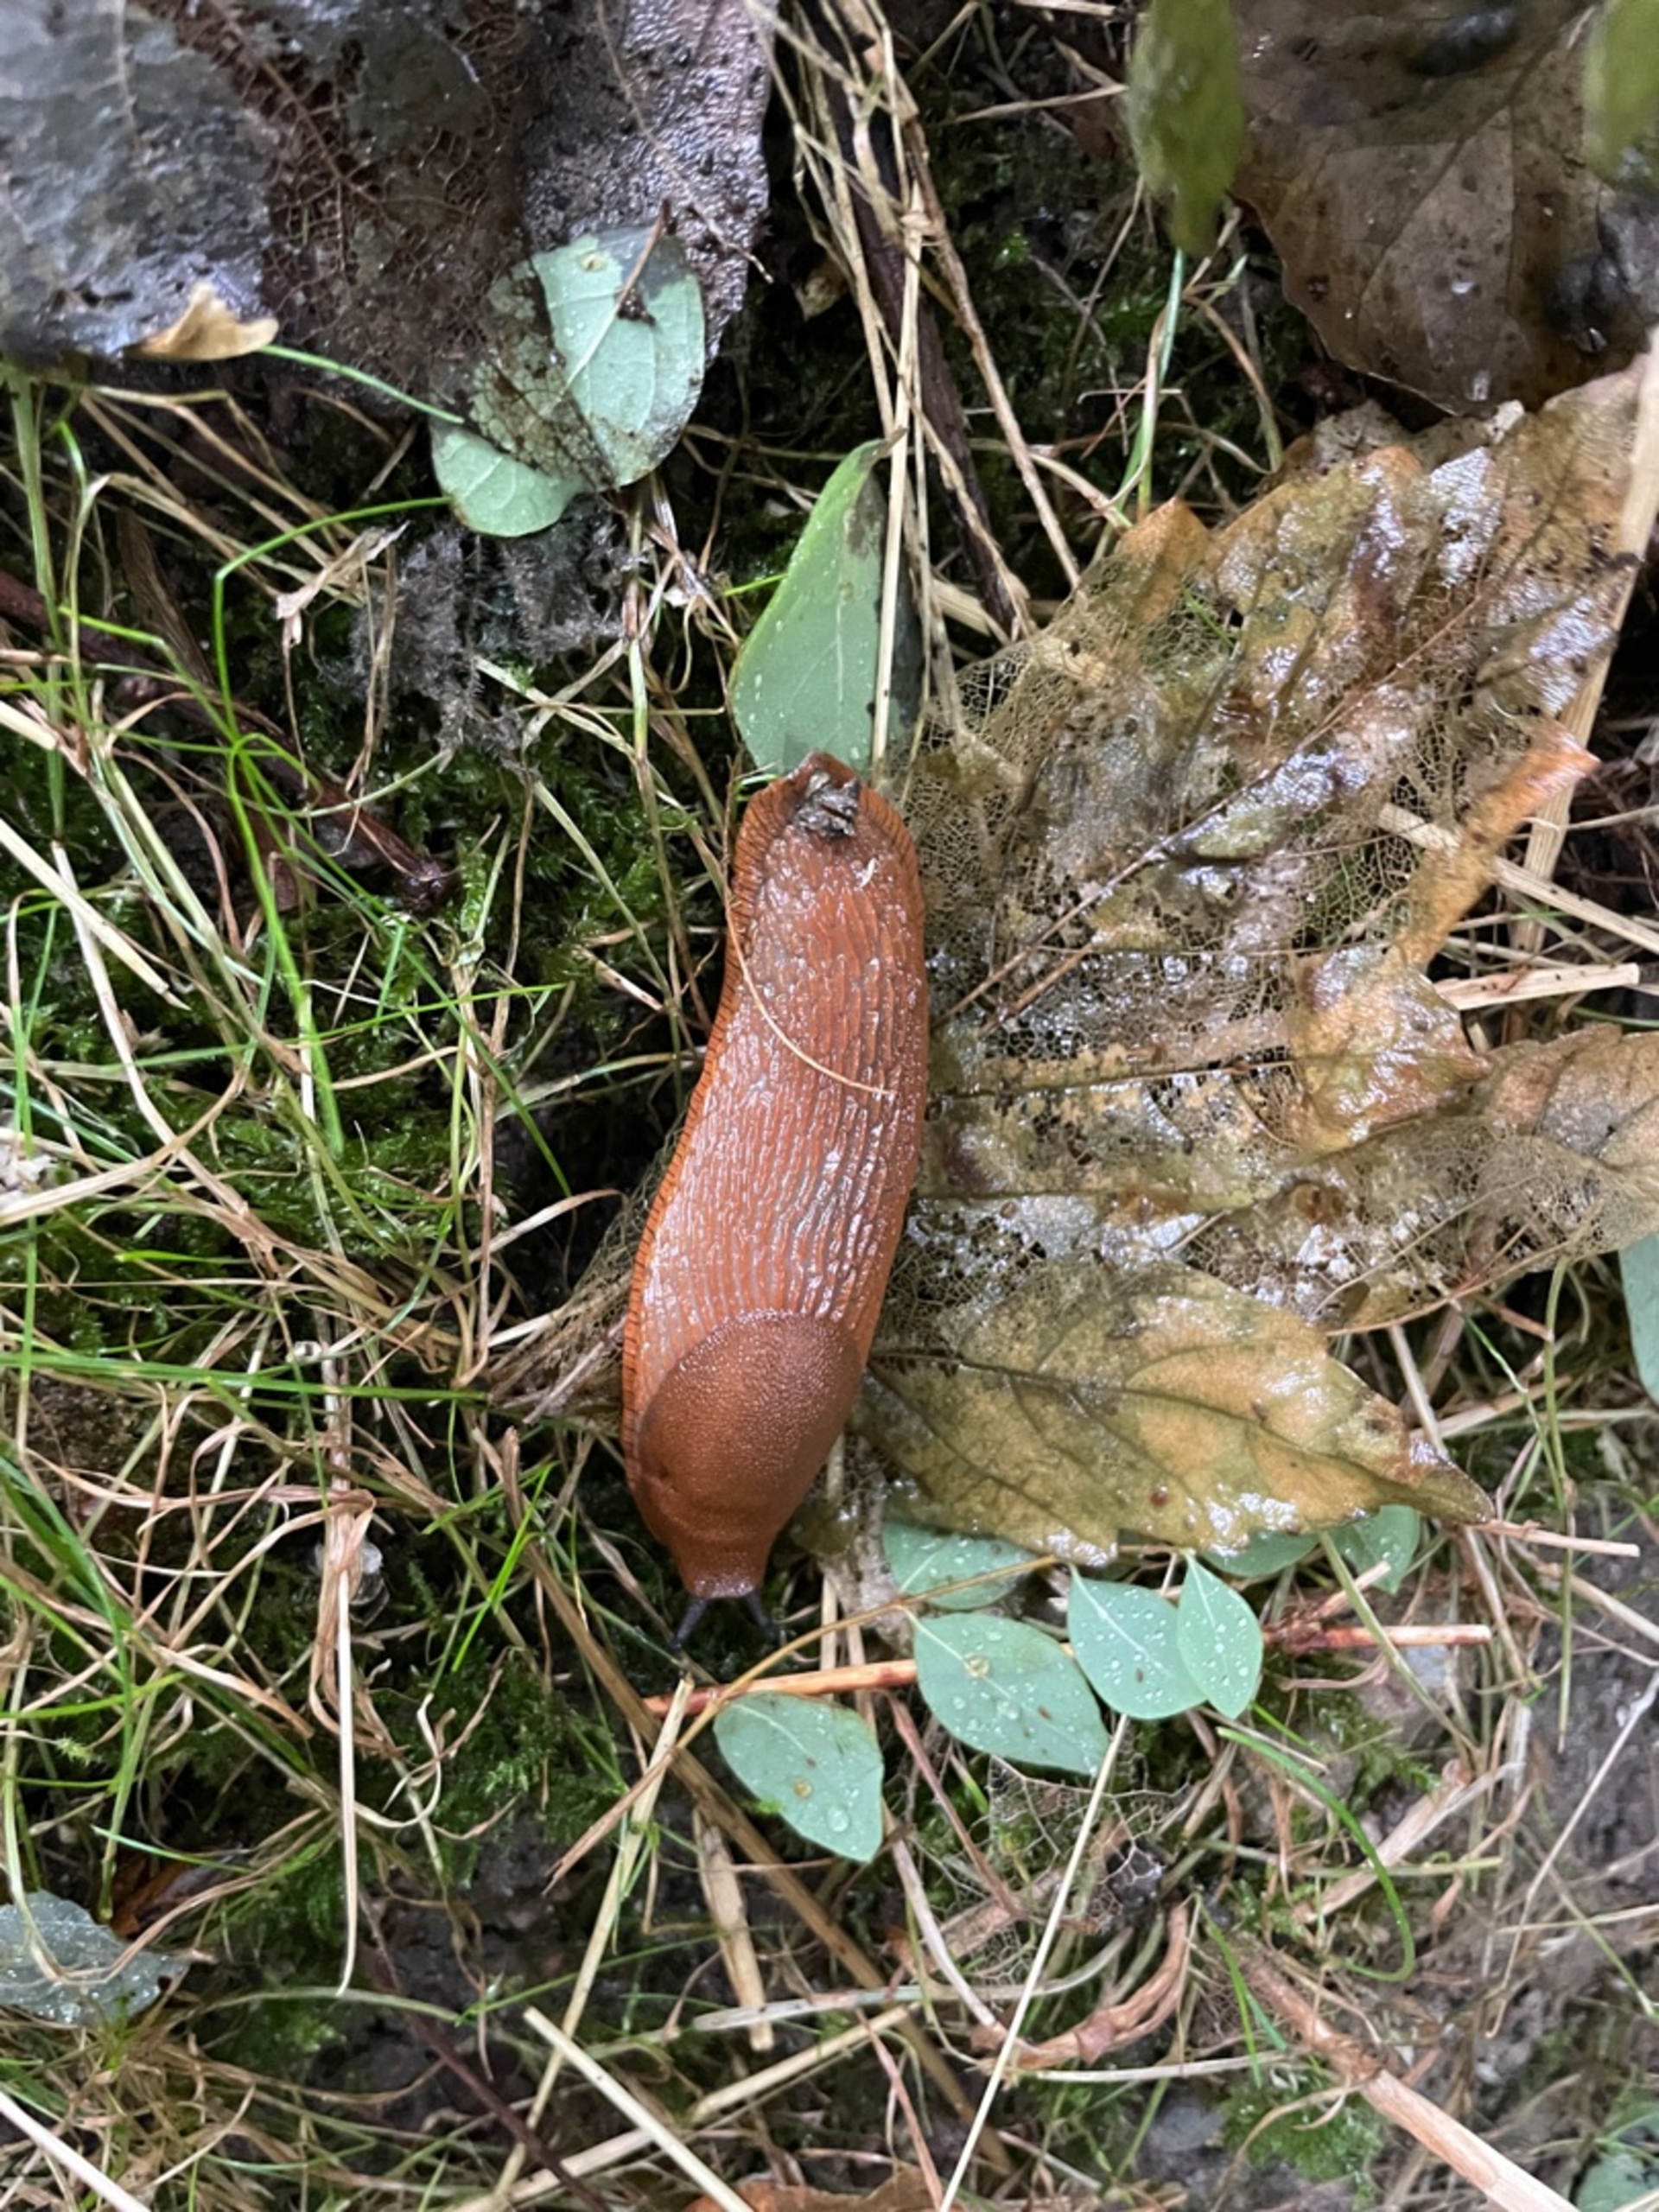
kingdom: Animalia
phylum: Mollusca
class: Gastropoda
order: Stylommatophora
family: Arionidae
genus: Arion
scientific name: Arion vulgaris
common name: Iberisk skovsnegl
